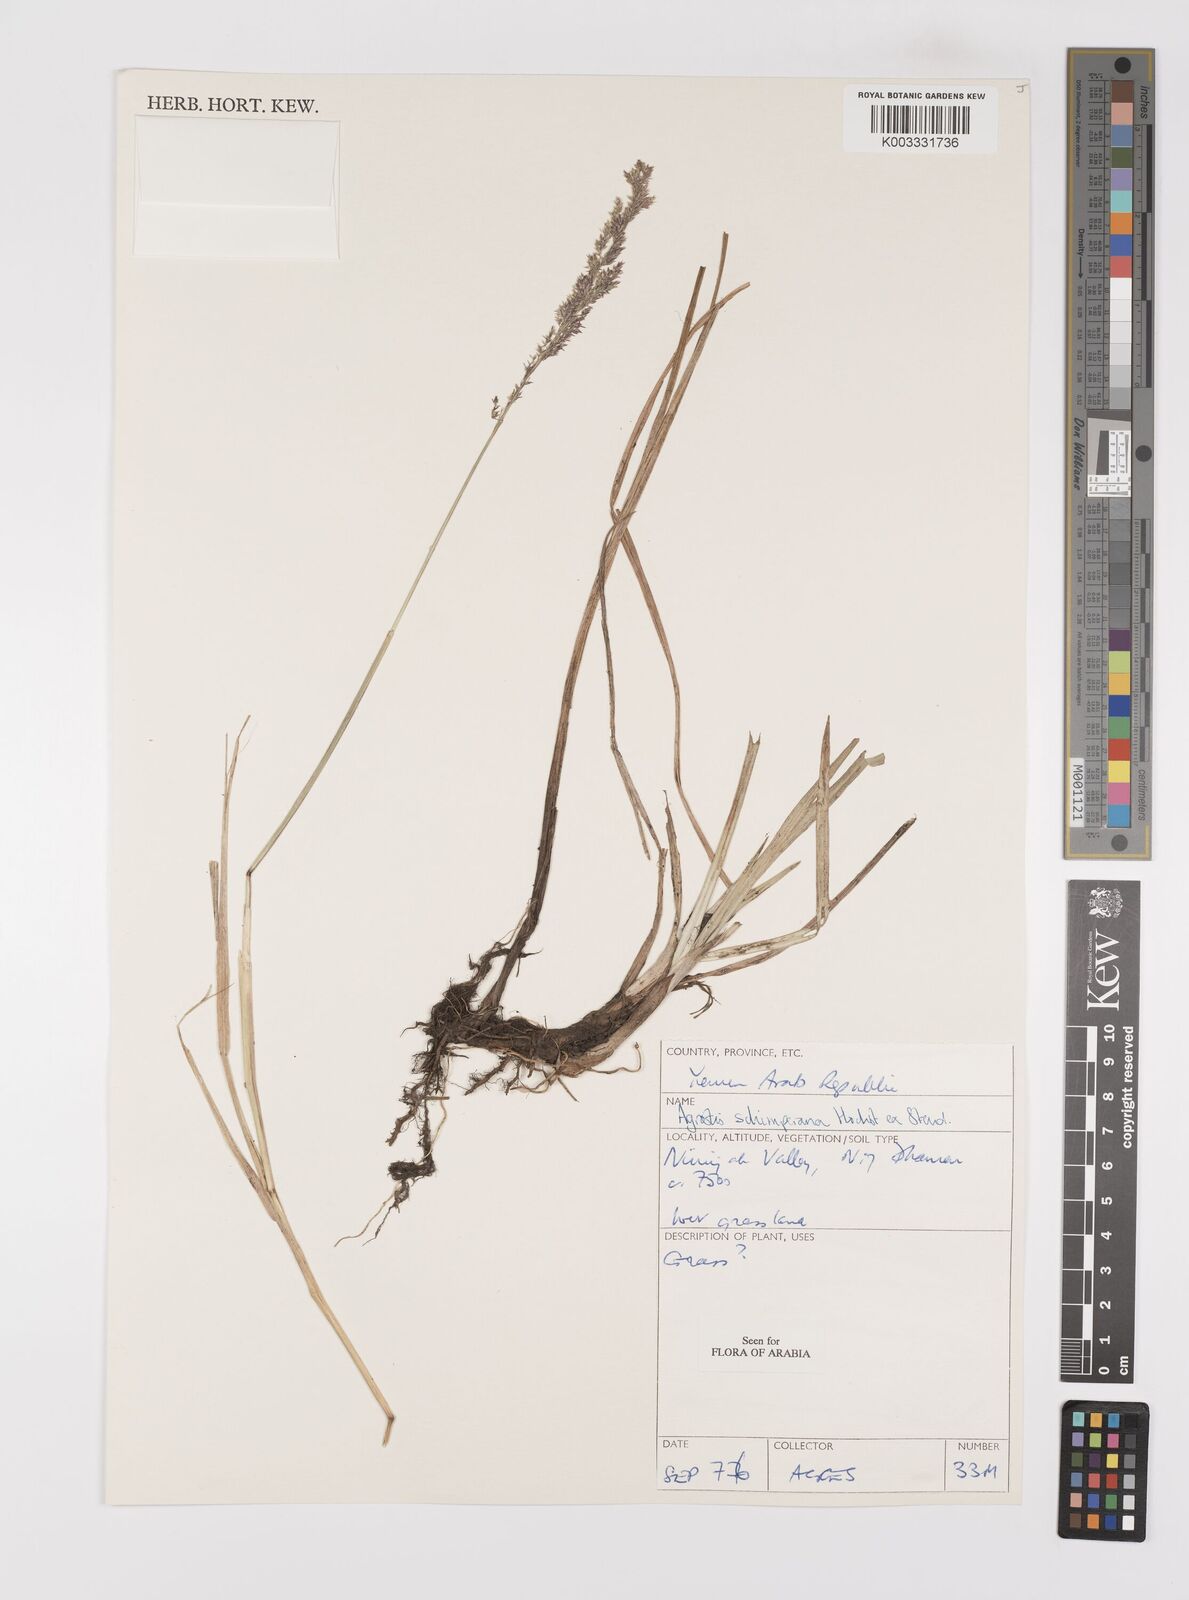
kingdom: Plantae
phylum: Tracheophyta
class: Liliopsida
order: Poales
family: Poaceae
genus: Polypogon
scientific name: Polypogon schimperianus
